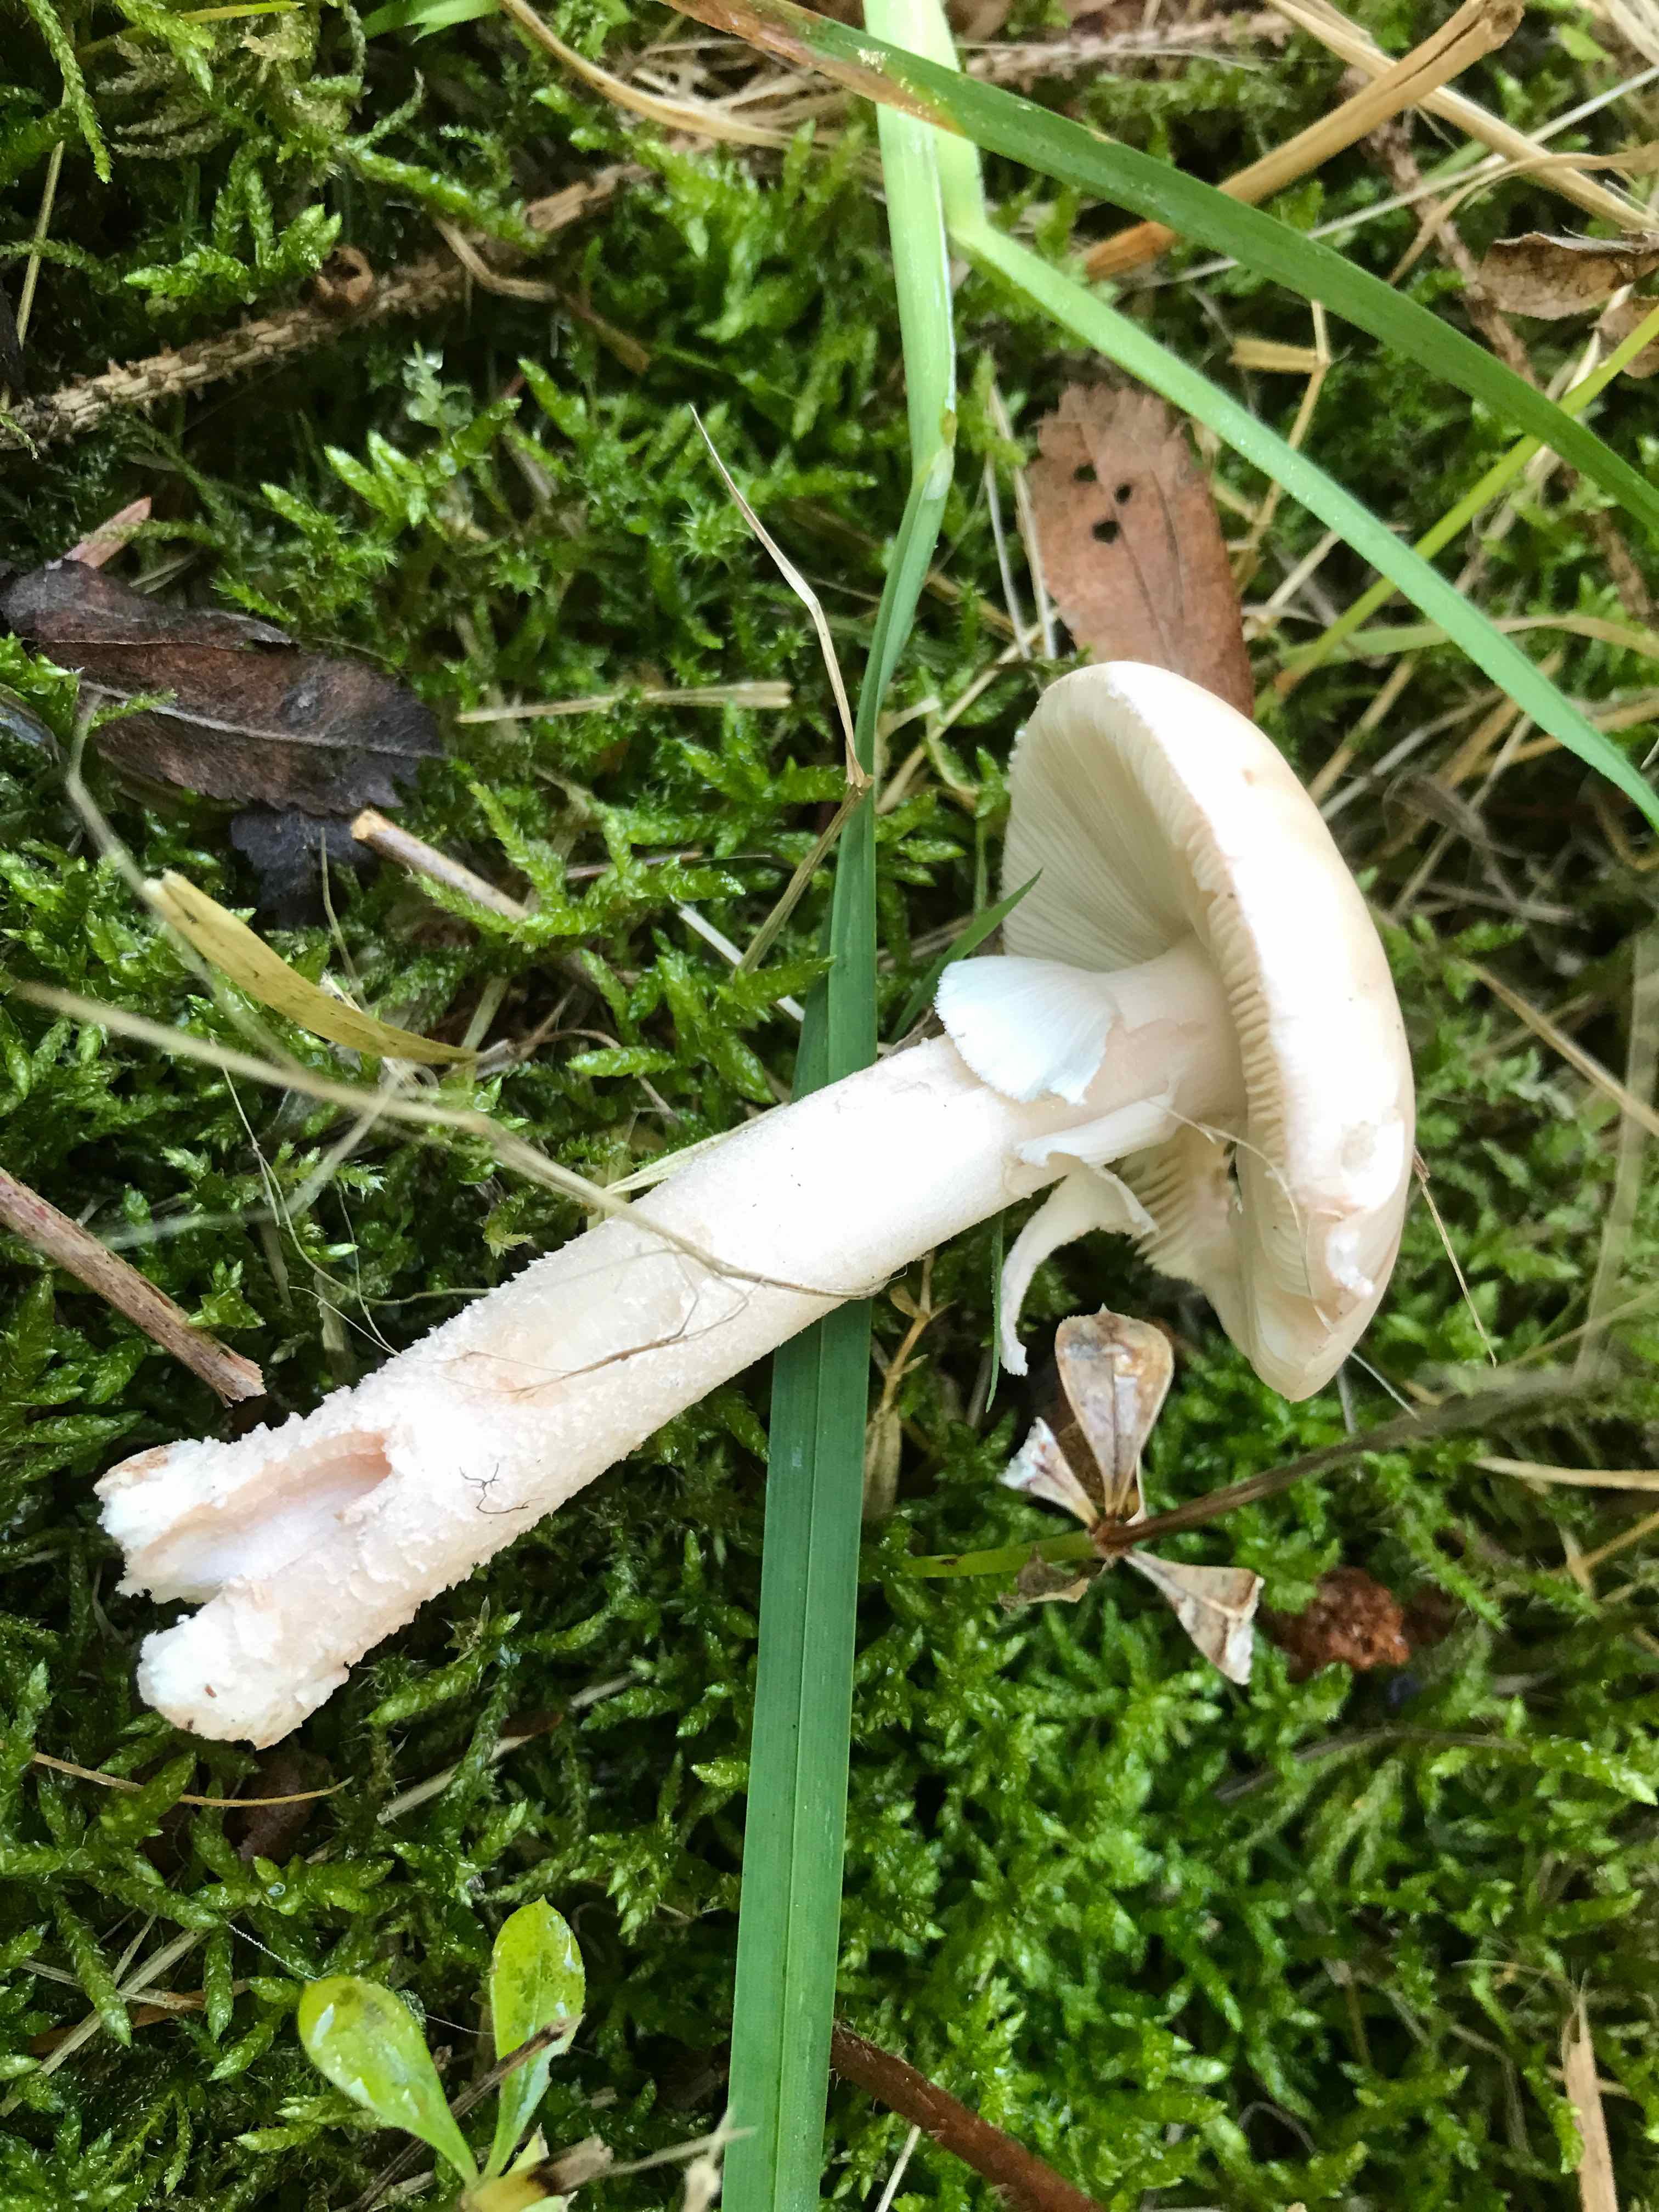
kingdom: Fungi
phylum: Basidiomycota
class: Agaricomycetes
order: Agaricales
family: Amanitaceae
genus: Amanita
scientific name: Amanita rubescens
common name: rødmende fluesvamp
